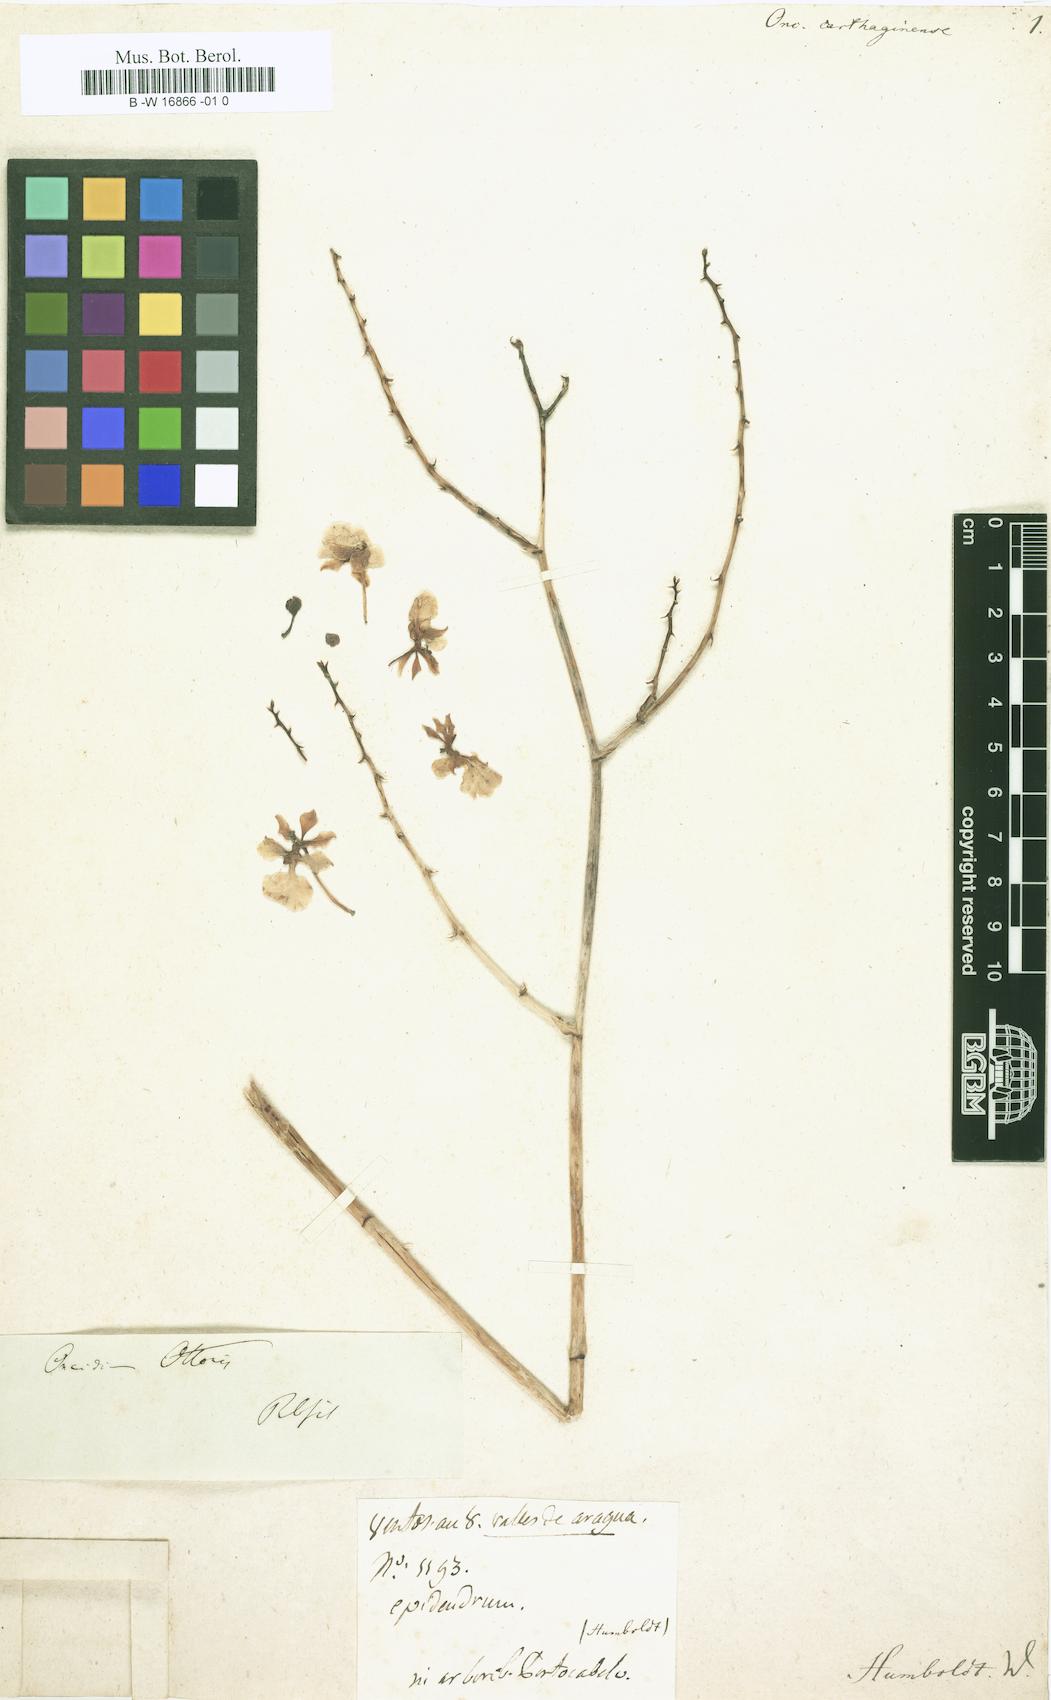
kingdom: Plantae
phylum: Tracheophyta
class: Liliopsida
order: Asparagales
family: Orchidaceae
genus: Trichocentrum
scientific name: Trichocentrum carthagenense
